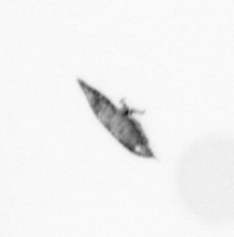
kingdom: Animalia
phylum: Arthropoda
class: Copepoda
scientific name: Copepoda
